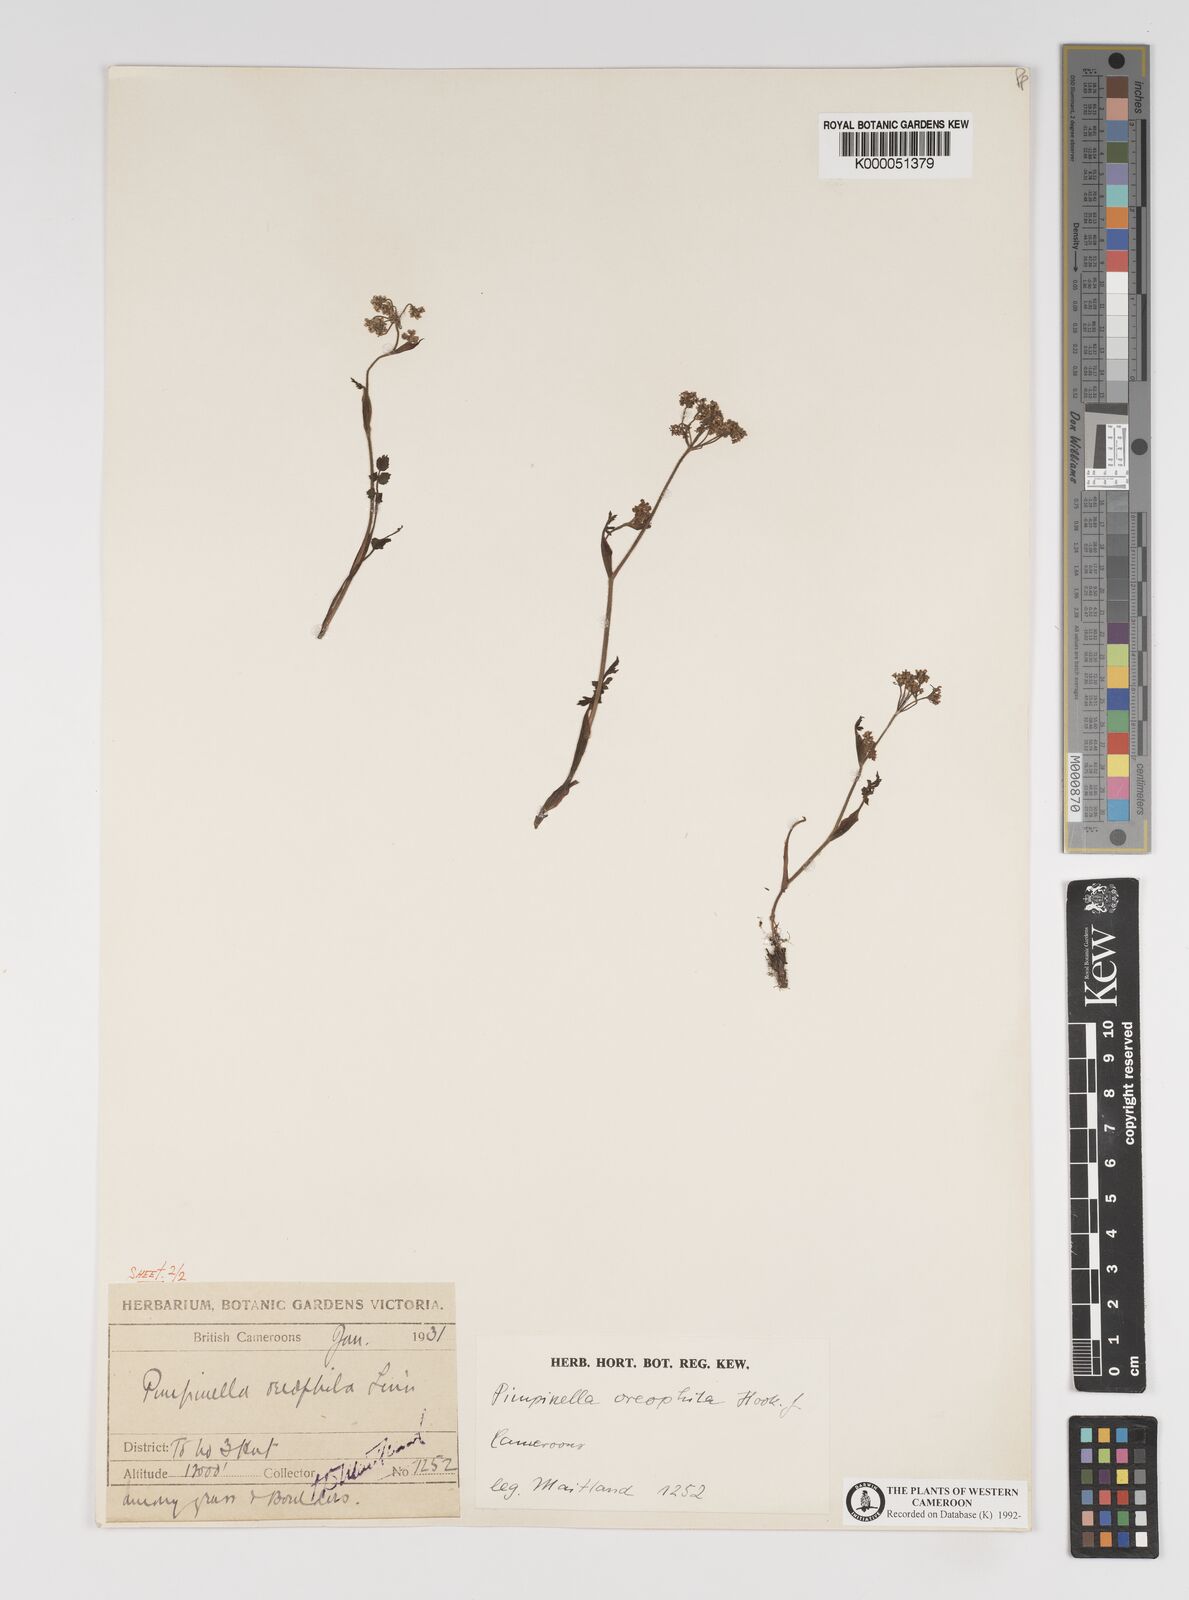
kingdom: Plantae
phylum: Tracheophyta
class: Magnoliopsida
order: Apiales
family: Apiaceae
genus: Pimpinella
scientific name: Pimpinella oreophila
